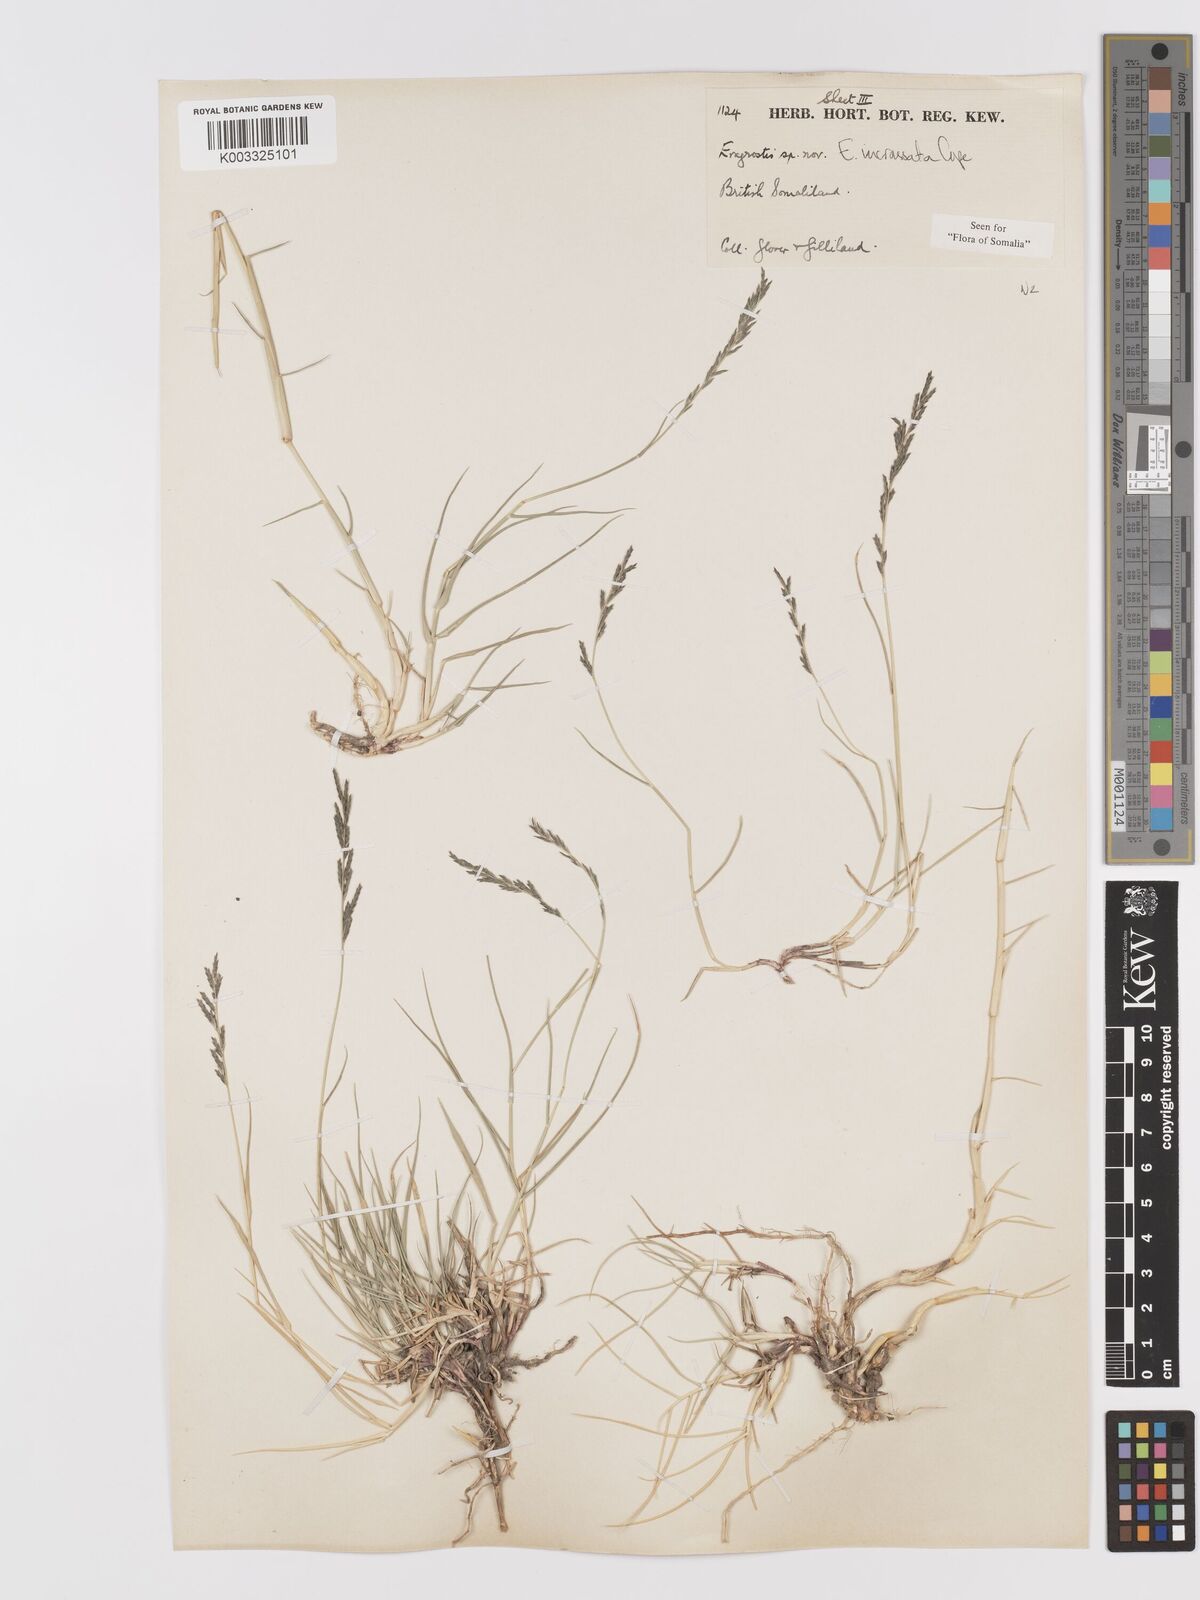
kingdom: Plantae
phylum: Tracheophyta
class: Liliopsida
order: Poales
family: Poaceae
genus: Eragrostis
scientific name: Eragrostis incrassata
